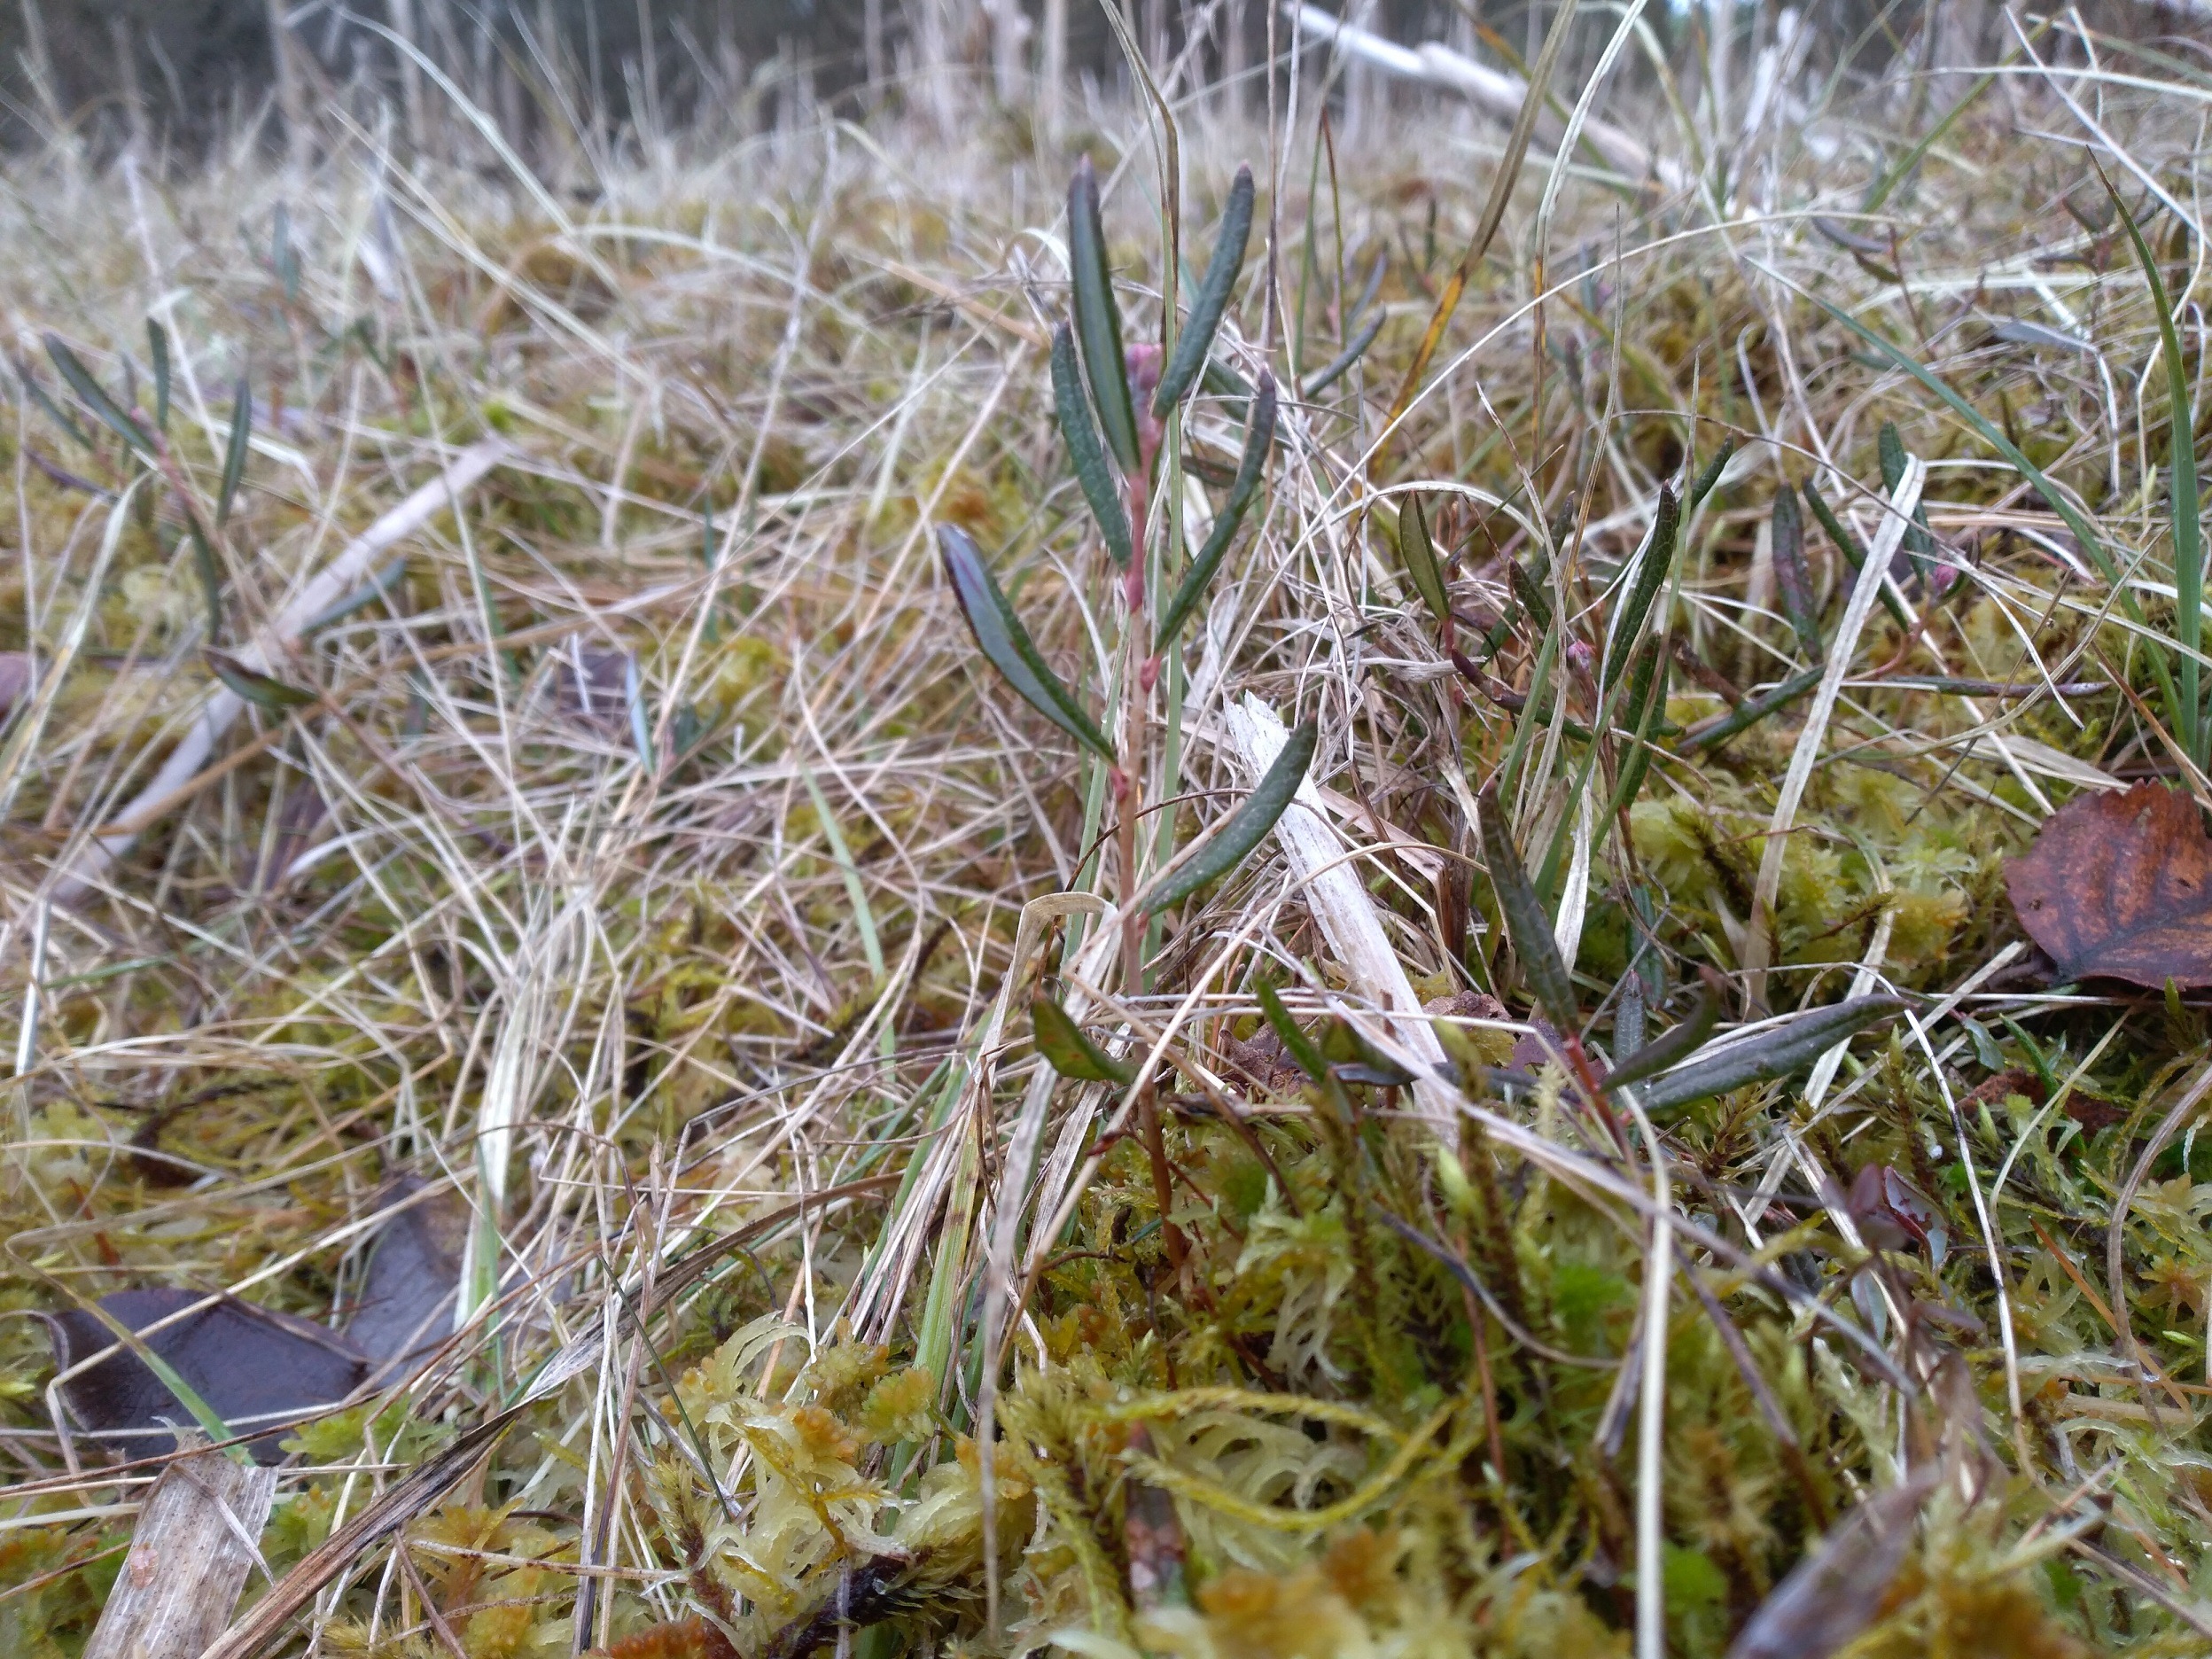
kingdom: Plantae
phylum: Tracheophyta
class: Magnoliopsida
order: Ericales
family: Ericaceae
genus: Andromeda
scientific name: Andromeda polifolia
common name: Rosmarinlyng
